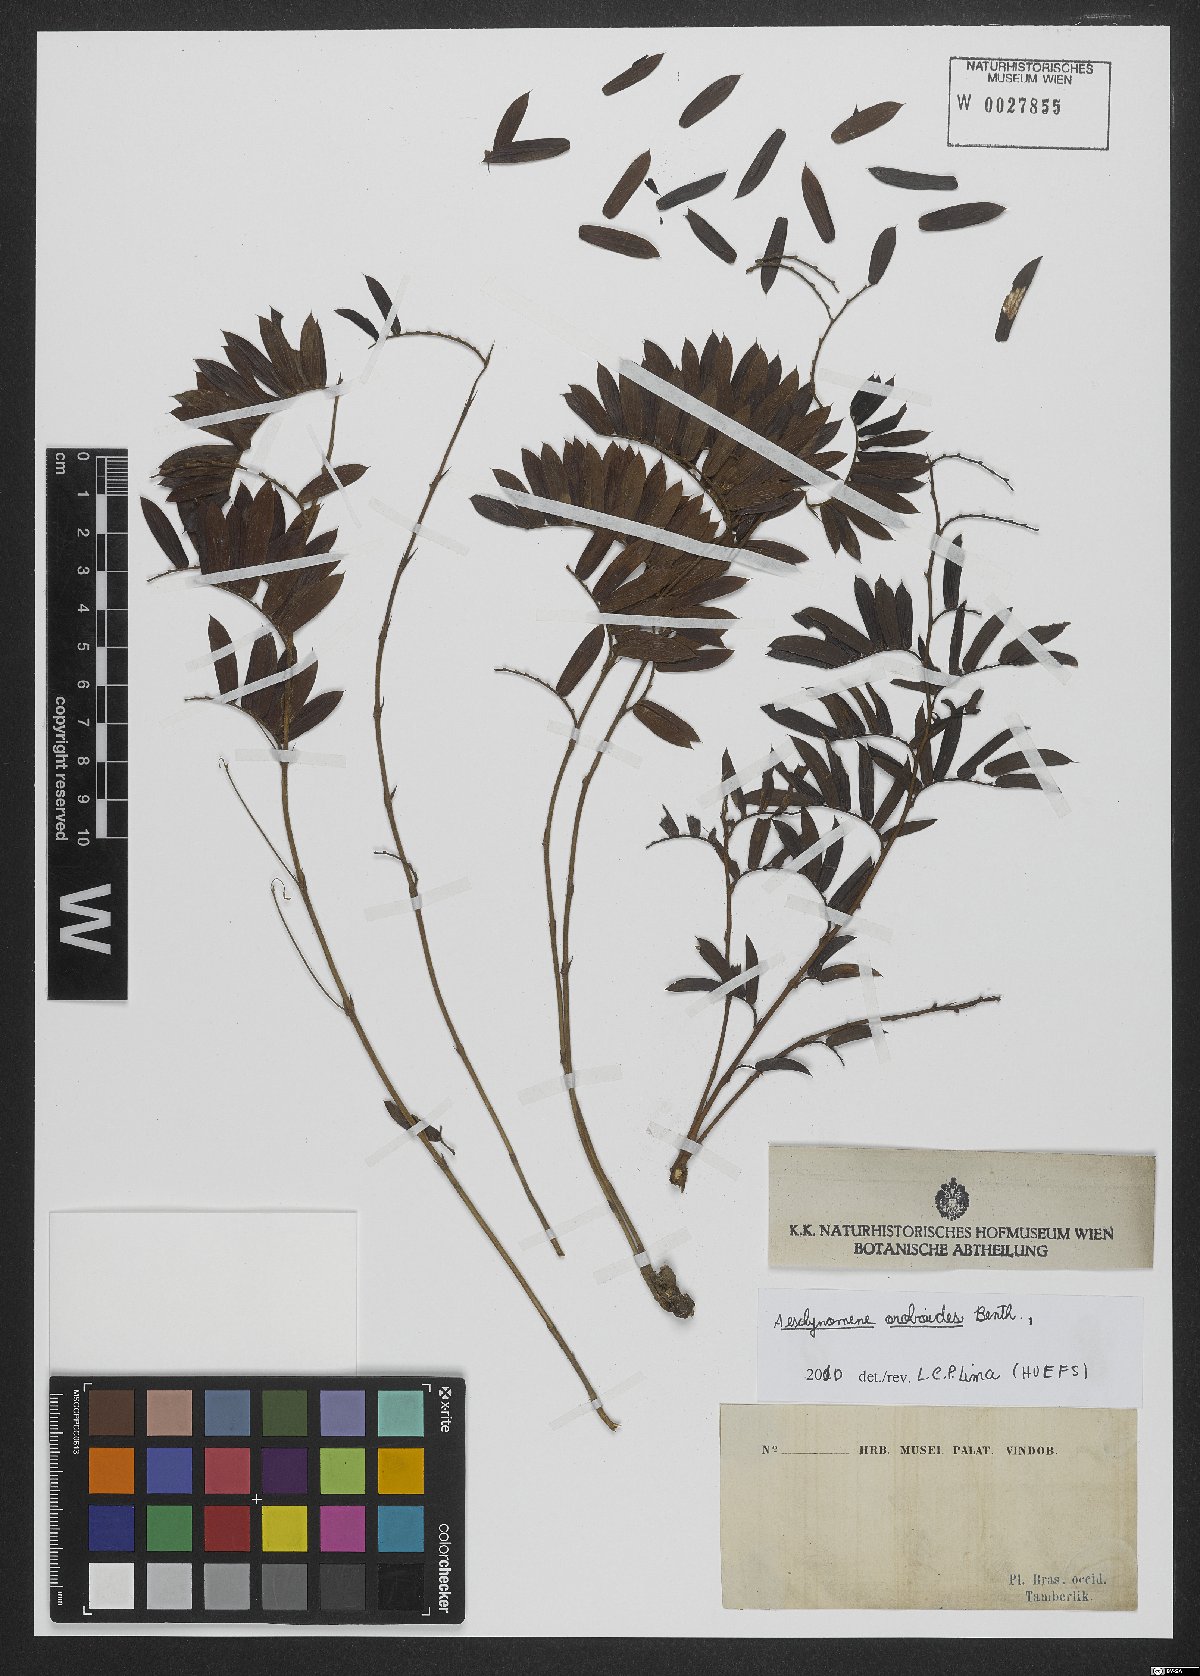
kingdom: Plantae
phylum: Tracheophyta
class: Magnoliopsida
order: Fabales
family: Fabaceae
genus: Ctenodon
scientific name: Ctenodon oroboides
